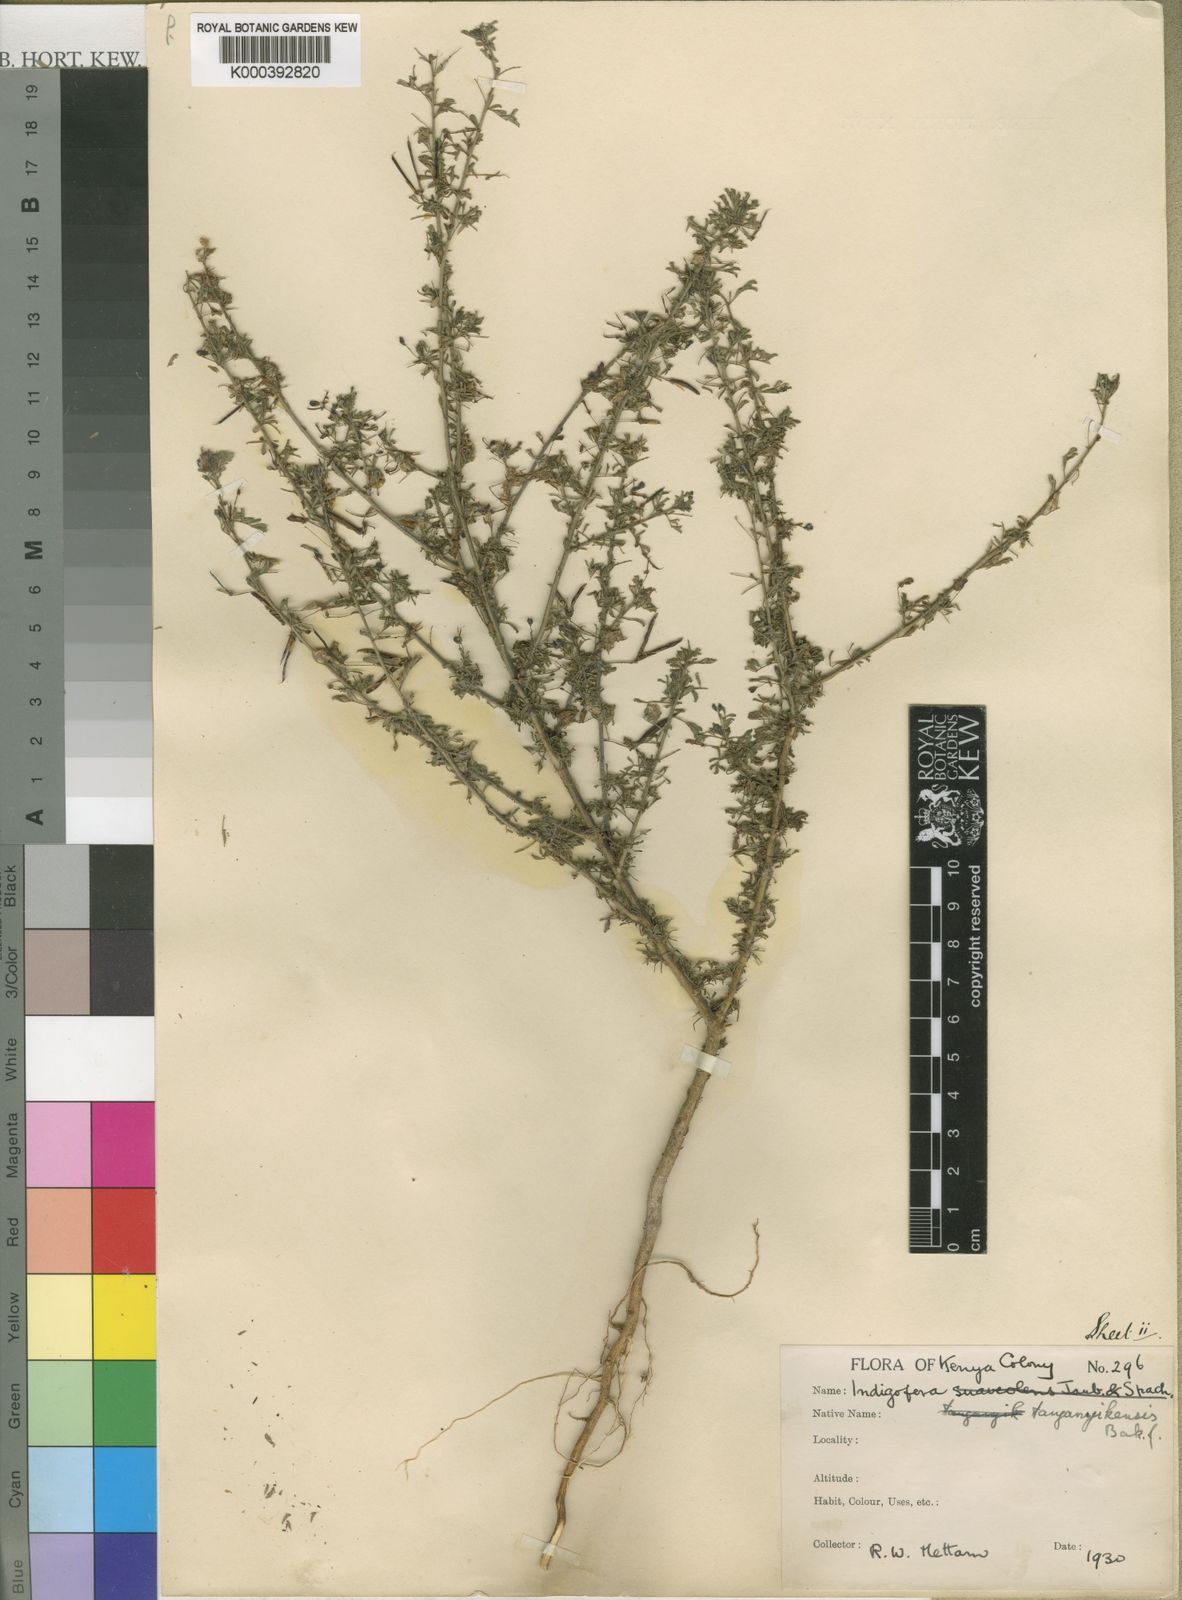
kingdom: Plantae
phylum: Tracheophyta
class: Magnoliopsida
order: Fabales
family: Fabaceae
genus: Indigofera
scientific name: Indigofera tanganyikensis
